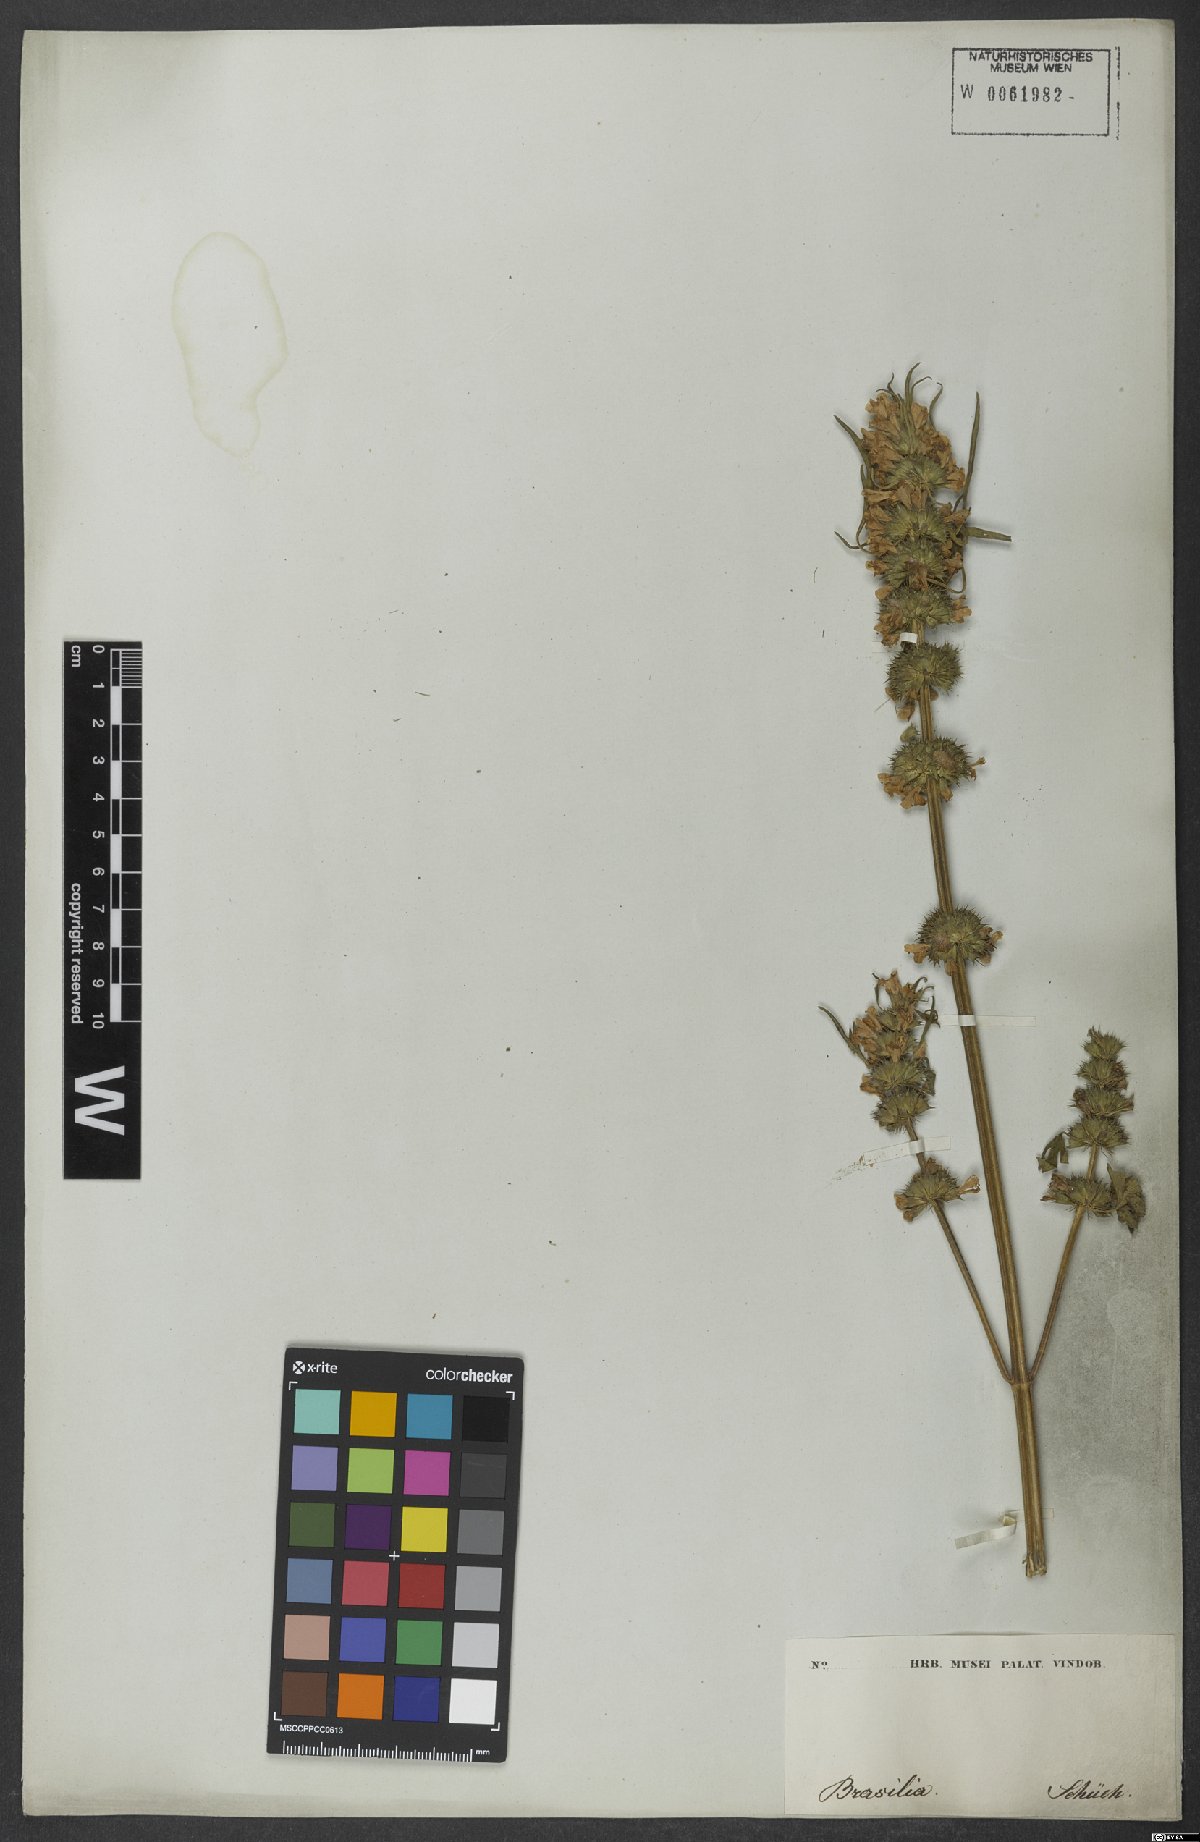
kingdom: Plantae
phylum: Tracheophyta
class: Magnoliopsida
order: Lamiales
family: Lamiaceae
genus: Leonurus
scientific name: Leonurus sibiricus
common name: Honeyweed
